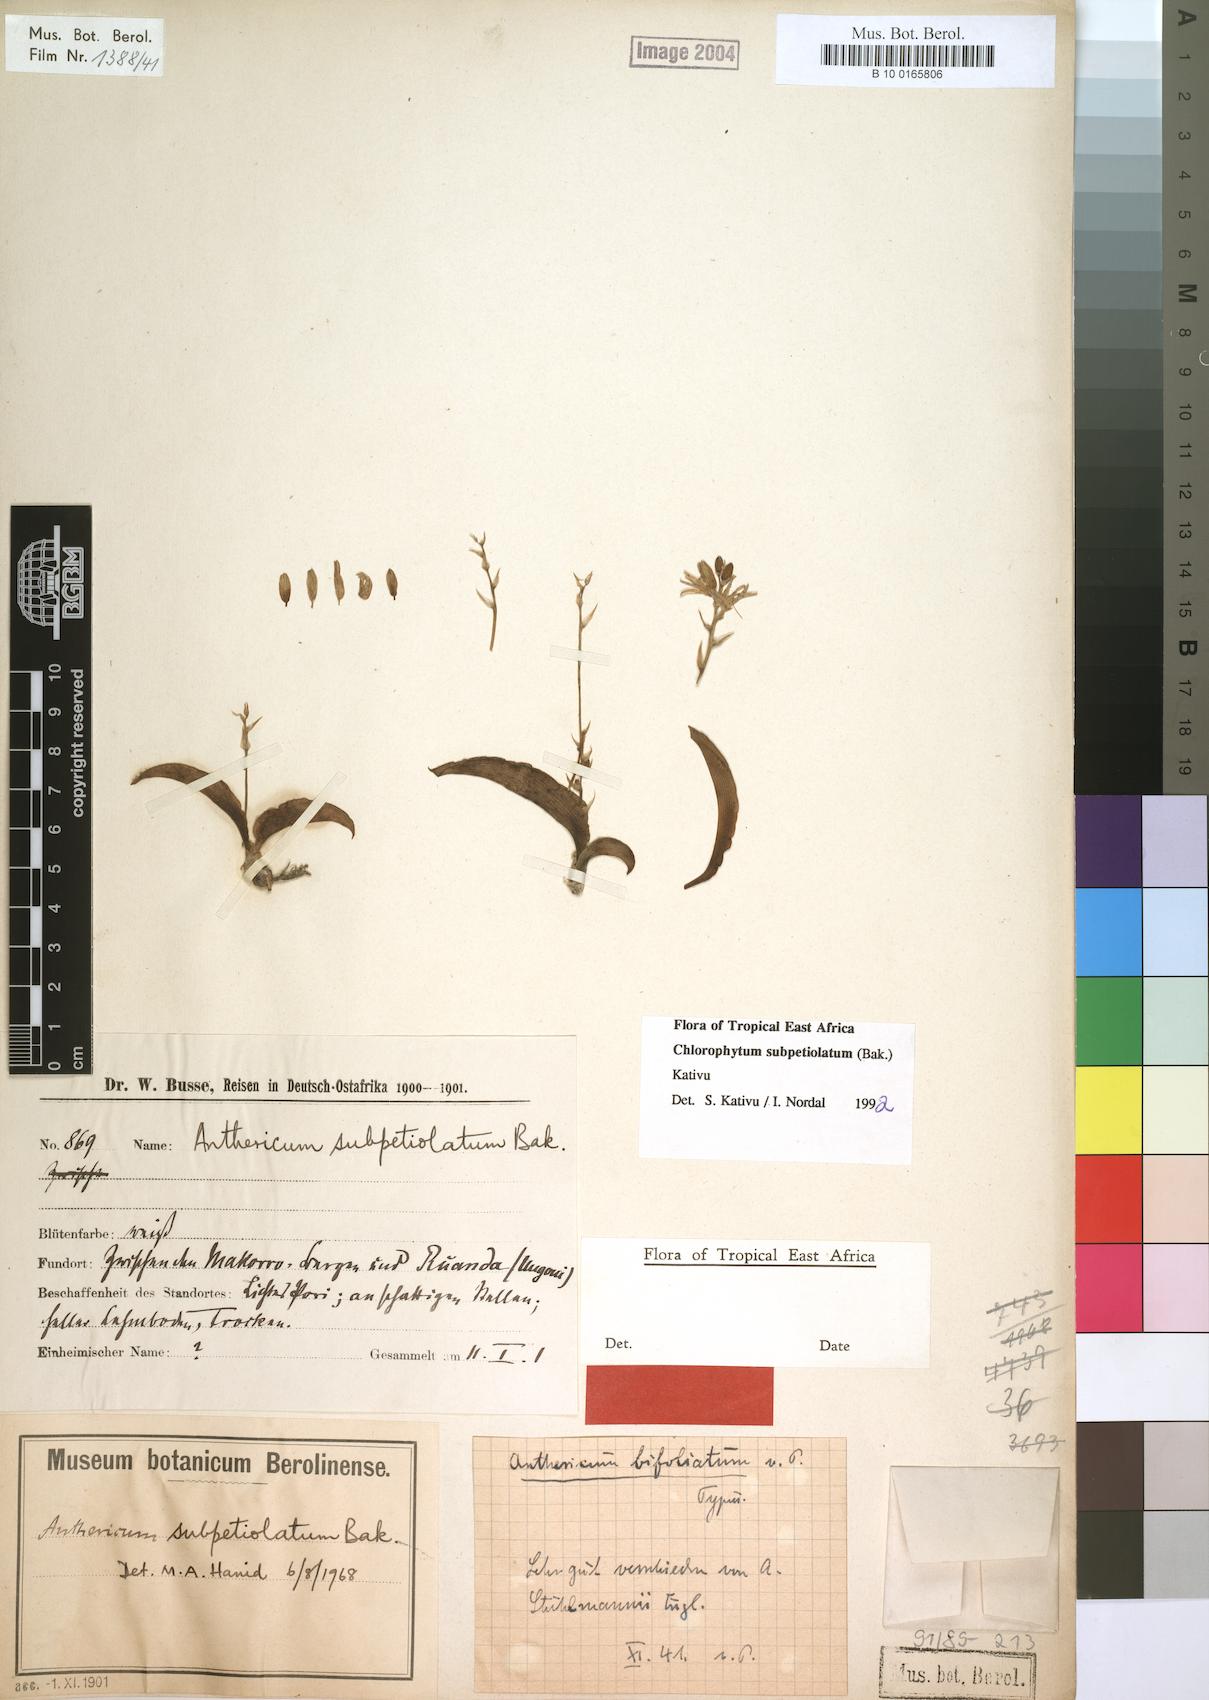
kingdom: Plantae
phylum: Tracheophyta
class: Liliopsida
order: Asparagales
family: Asparagaceae
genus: Chlorophytum
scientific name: Chlorophytum subpetiolatum
